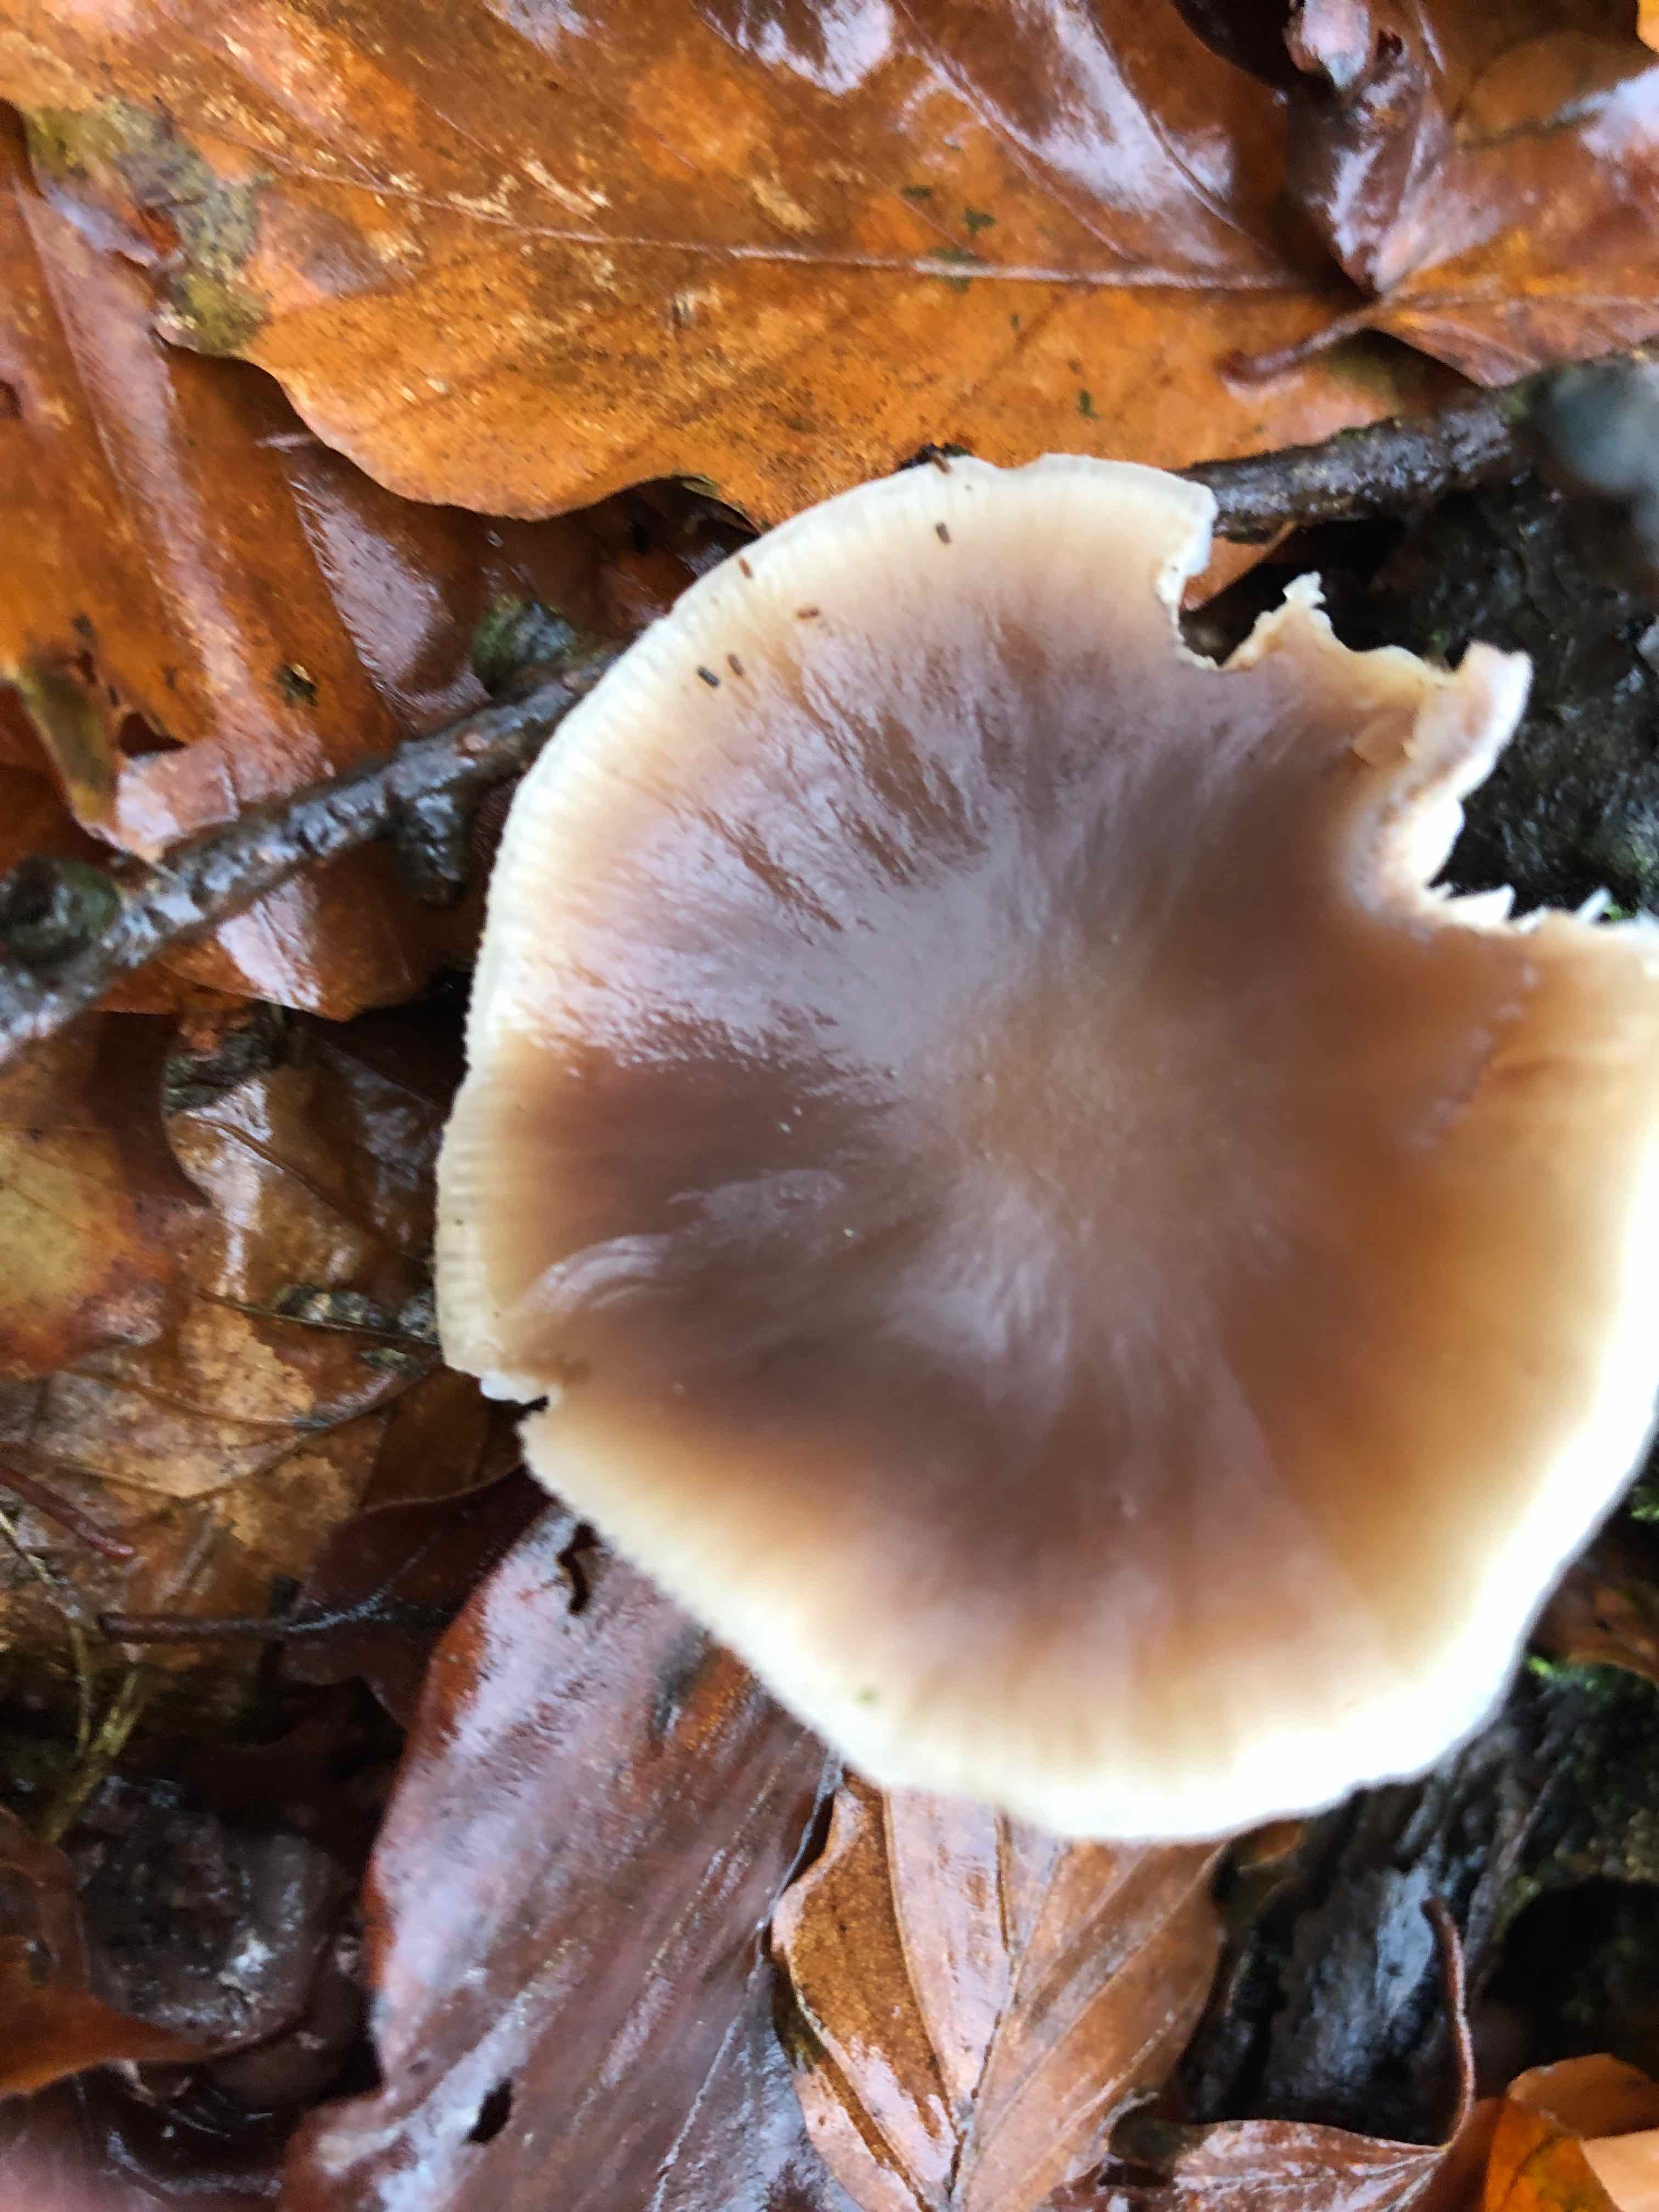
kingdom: Fungi
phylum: Basidiomycota
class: Agaricomycetes
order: Agaricales
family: Omphalotaceae
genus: Rhodocollybia
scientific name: Rhodocollybia asema
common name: horngrå fladhat
